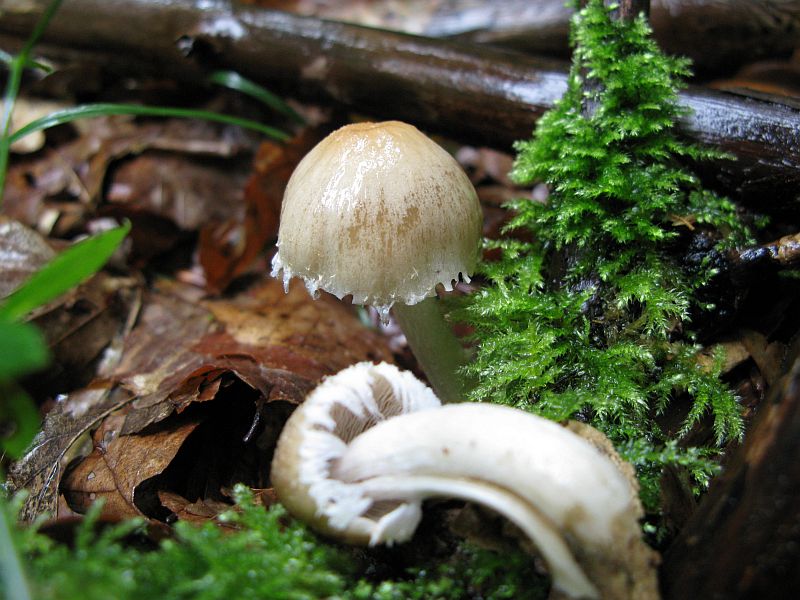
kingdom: Fungi
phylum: Basidiomycota
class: Agaricomycetes
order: Agaricales
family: Psathyrellaceae
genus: Candolleomyces
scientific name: Candolleomyces candolleanus
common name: Candolles mørkhat
